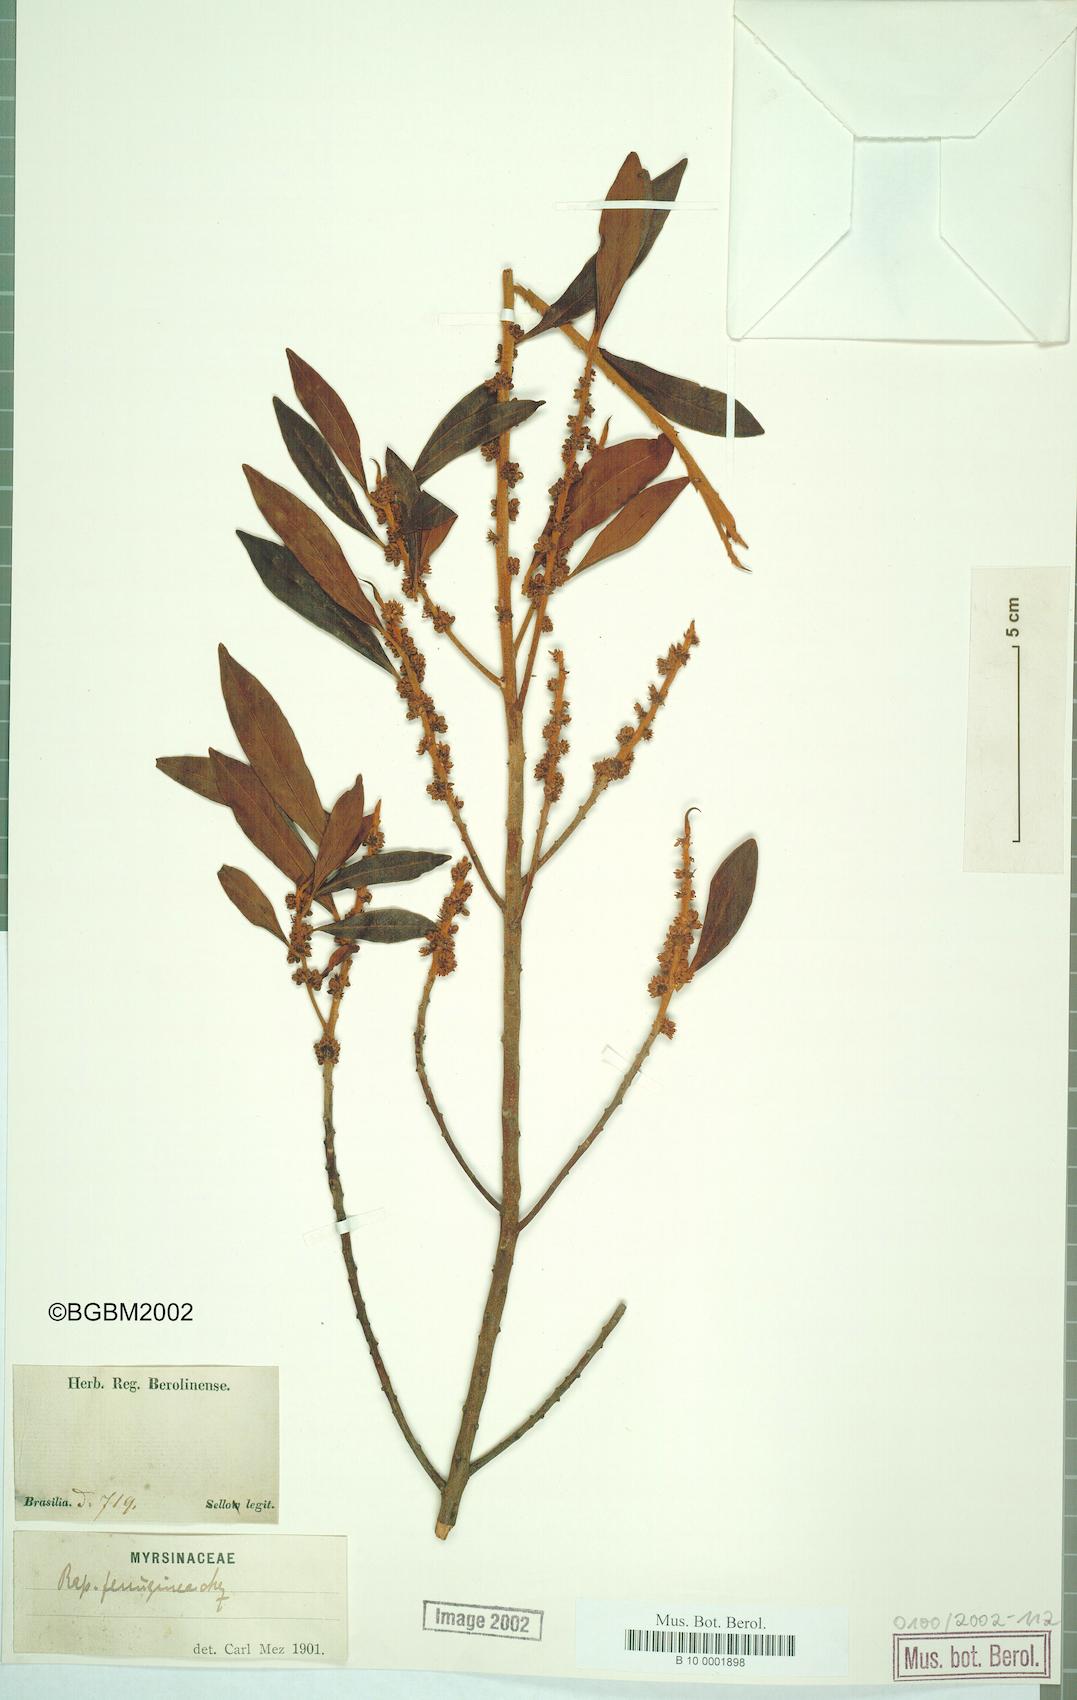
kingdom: Plantae
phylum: Tracheophyta
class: Magnoliopsida
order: Ericales
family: Primulaceae
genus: Myrsine
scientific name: Myrsine coriacea
